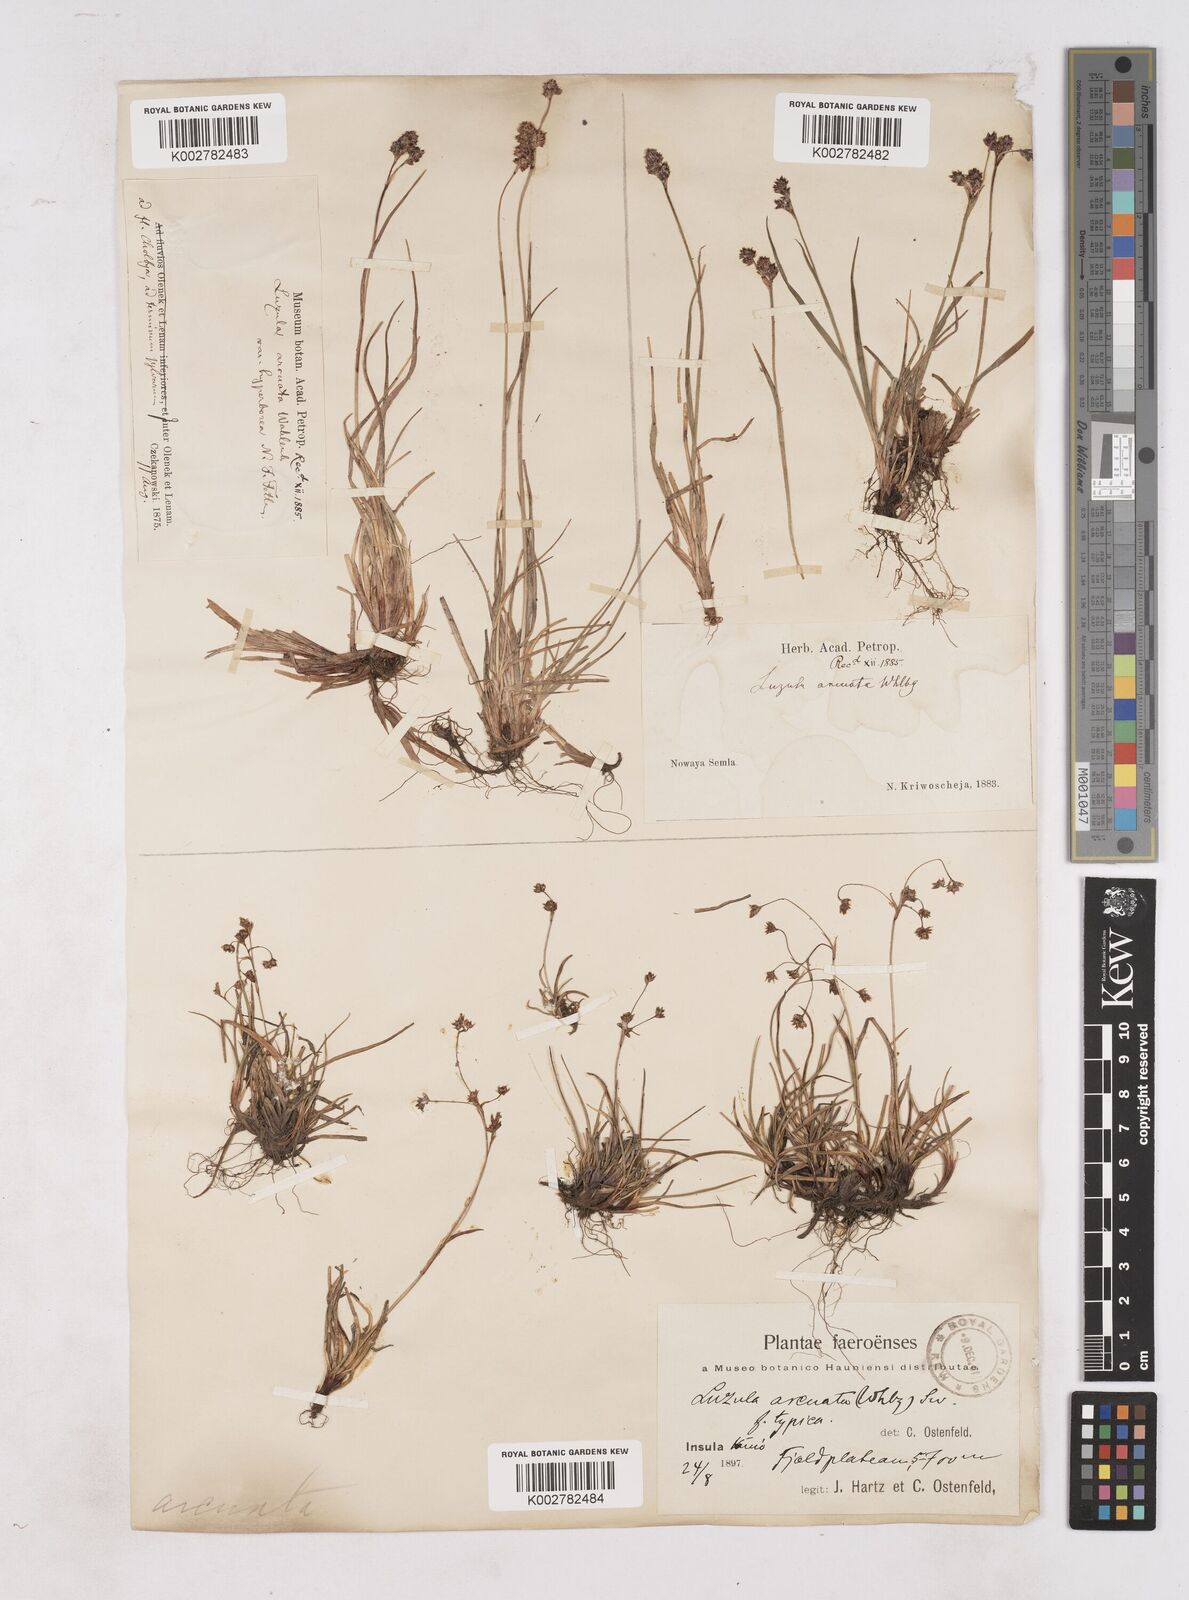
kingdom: Plantae
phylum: Tracheophyta
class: Liliopsida
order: Poales
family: Juncaceae
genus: Luzula
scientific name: Luzula arcuata
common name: Curved wood-rush
